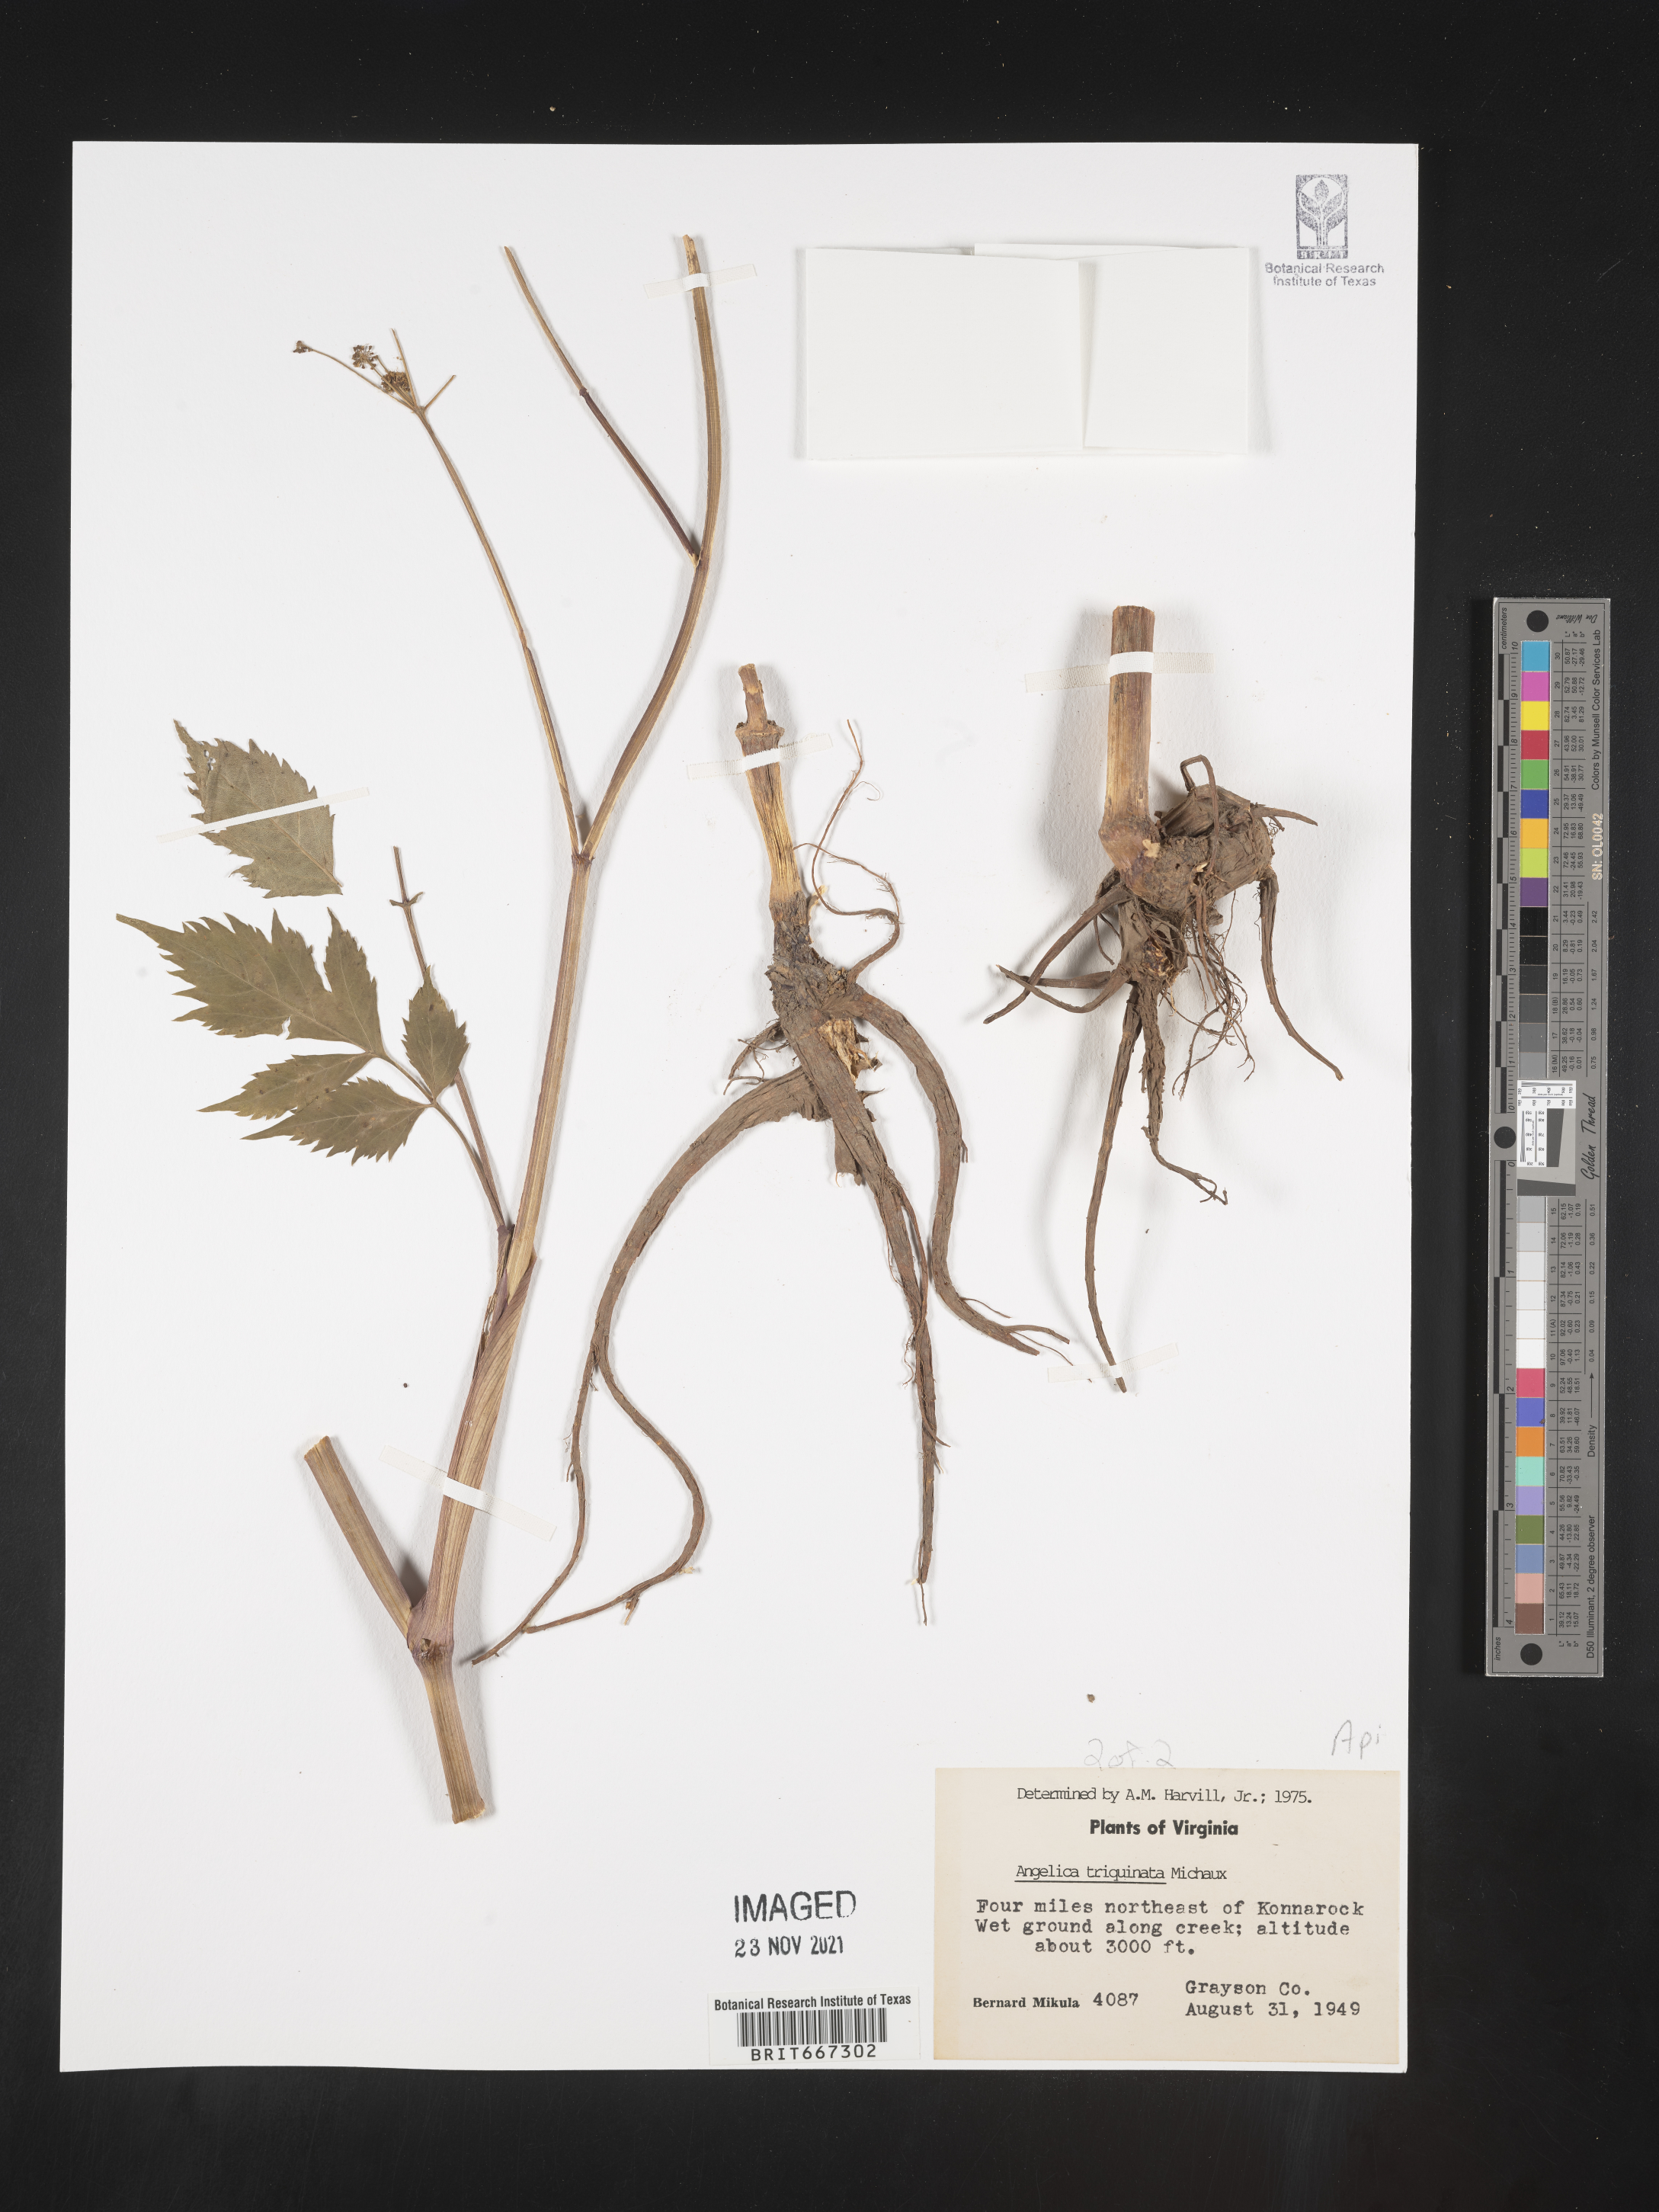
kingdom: Plantae
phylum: Tracheophyta
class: Magnoliopsida
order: Apiales
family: Apiaceae
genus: Angelica
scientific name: Angelica triquinata
